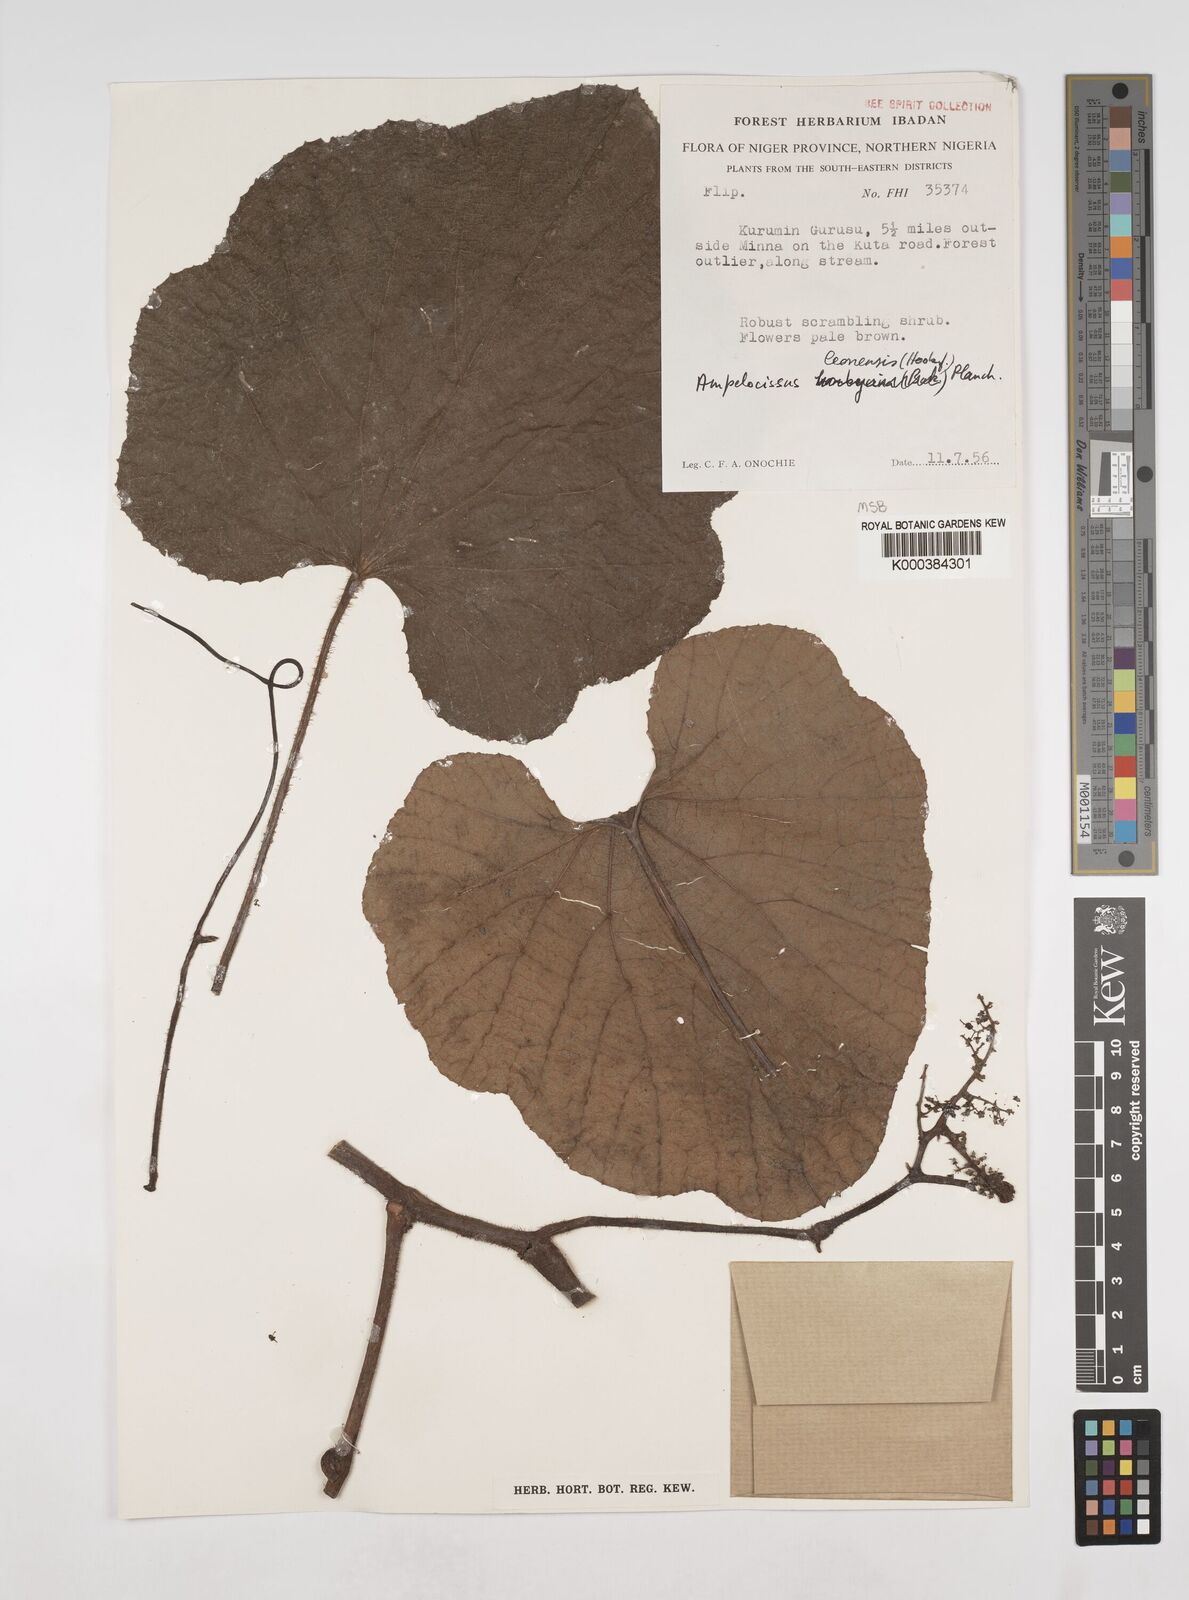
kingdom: Plantae
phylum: Tracheophyta
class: Magnoliopsida
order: Vitales
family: Vitaceae
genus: Ampelocissus
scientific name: Ampelocissus leonensis
